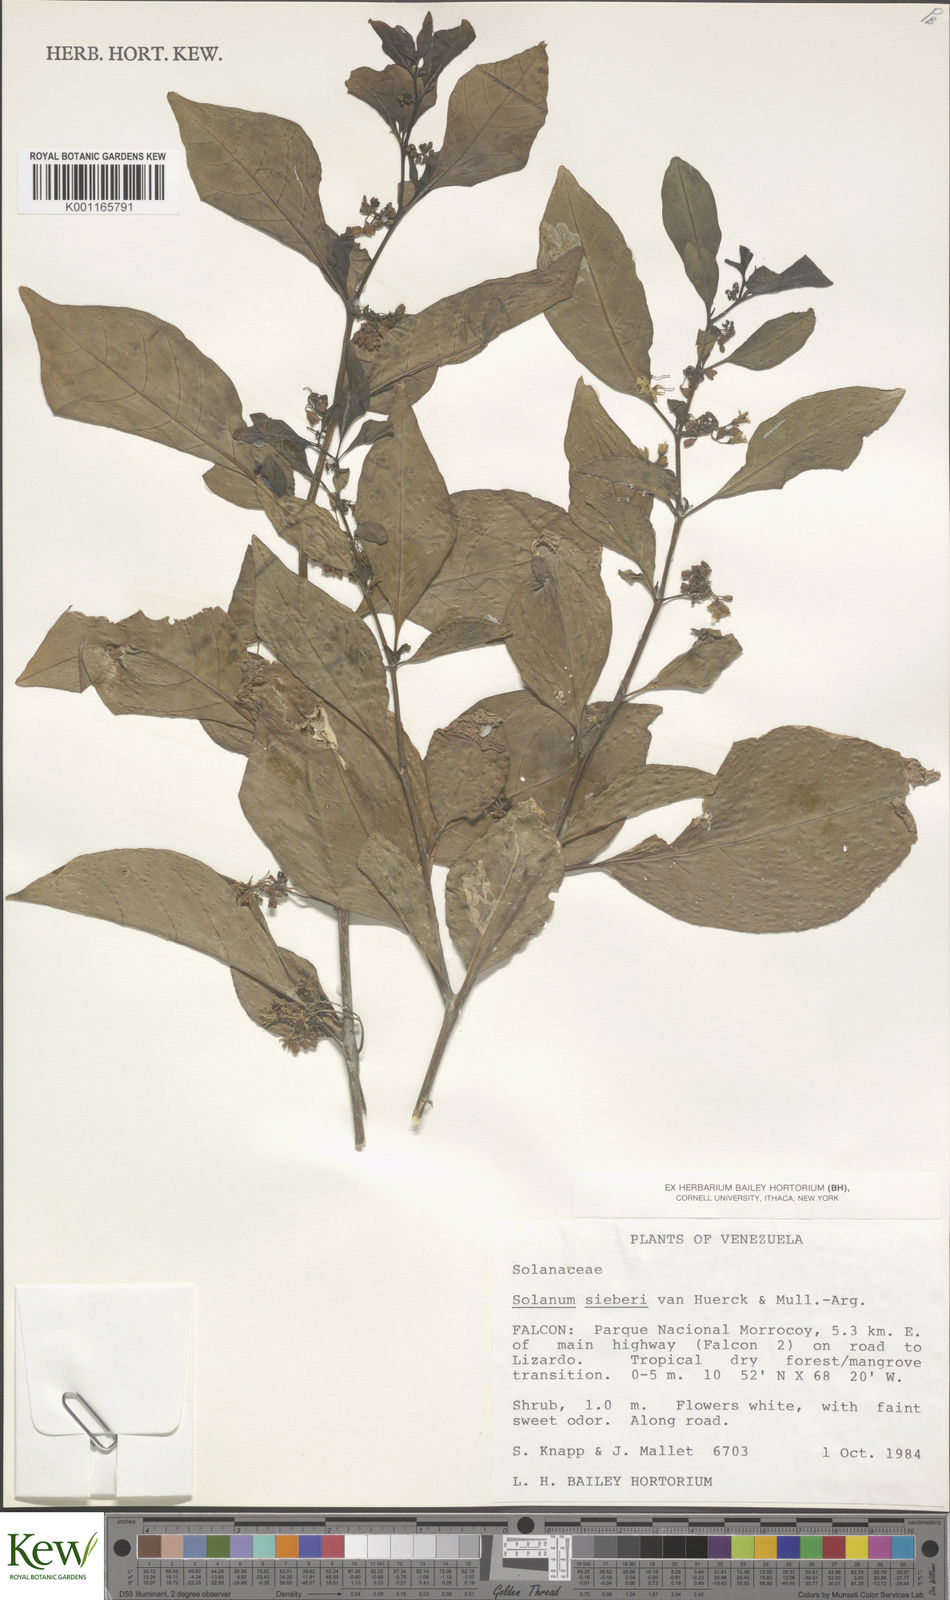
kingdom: Plantae
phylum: Tracheophyta
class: Magnoliopsida
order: Solanales
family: Solanaceae
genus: Solanum
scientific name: Solanum sieberi
